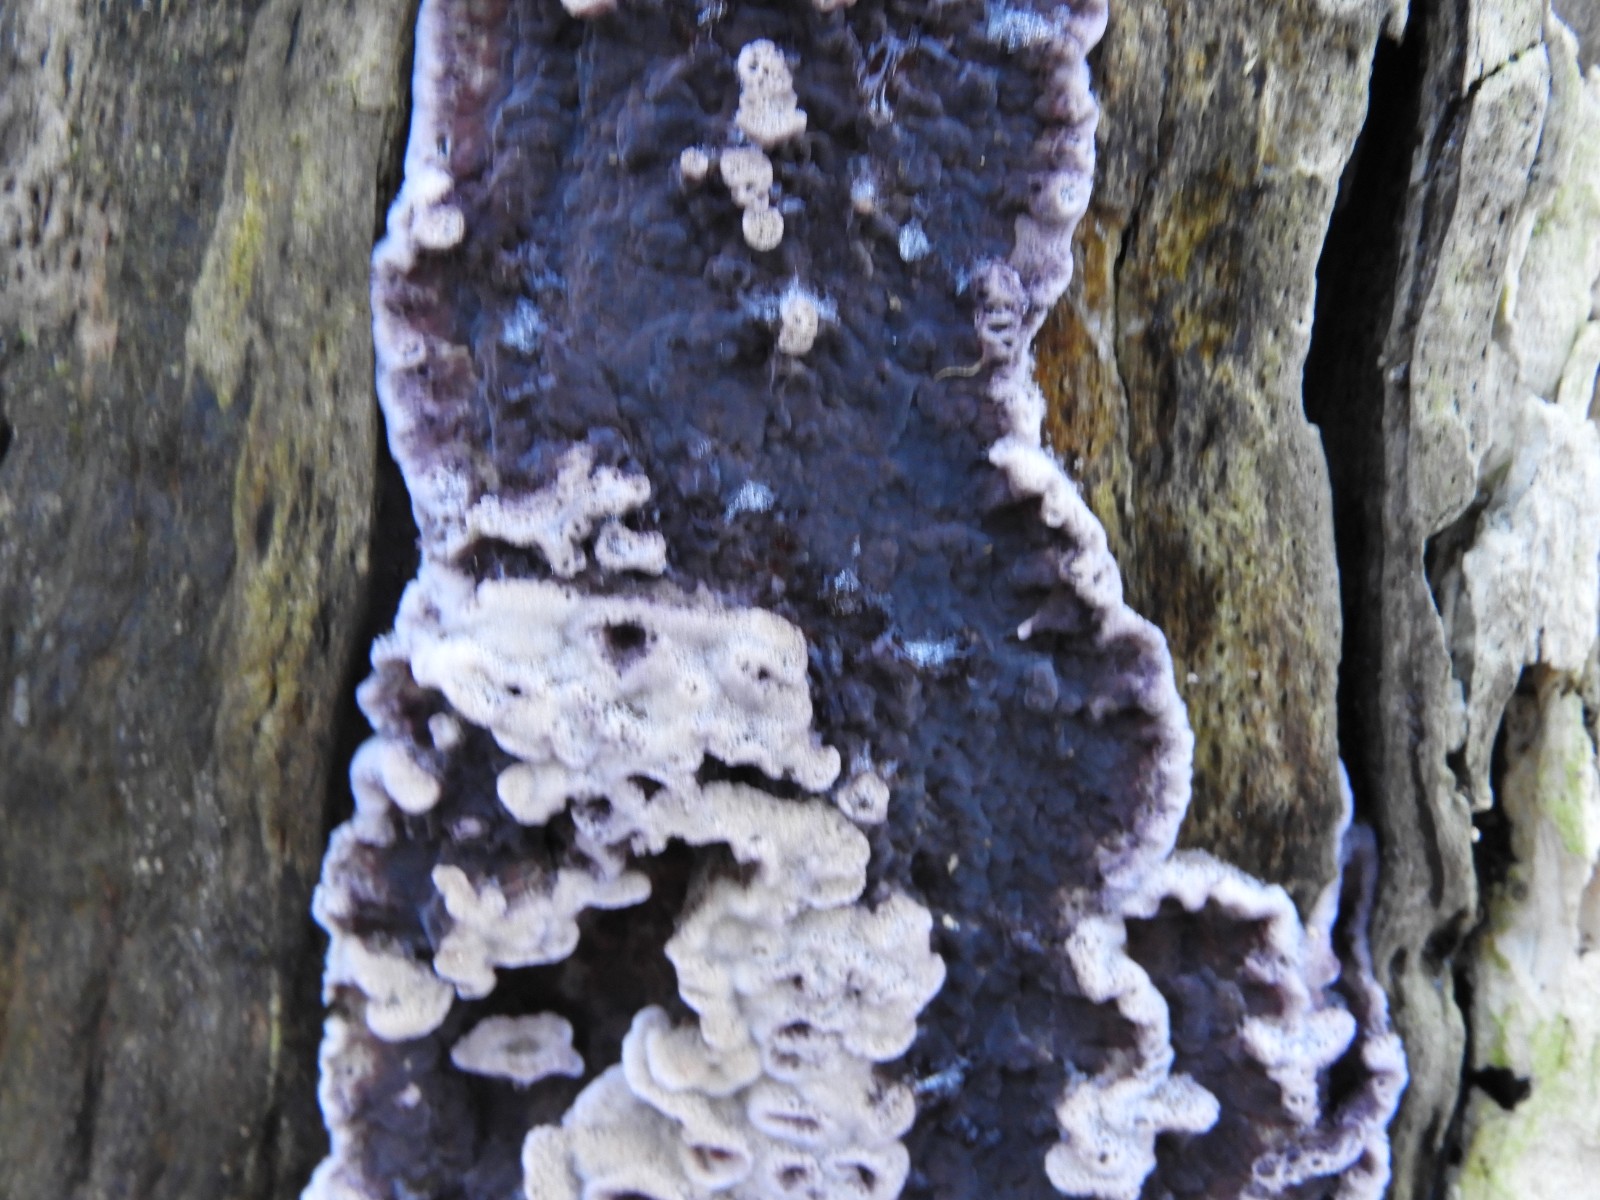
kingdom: Fungi
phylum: Basidiomycota
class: Agaricomycetes
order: Agaricales
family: Cyphellaceae
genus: Chondrostereum
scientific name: Chondrostereum purpureum
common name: purpurlædersvamp
